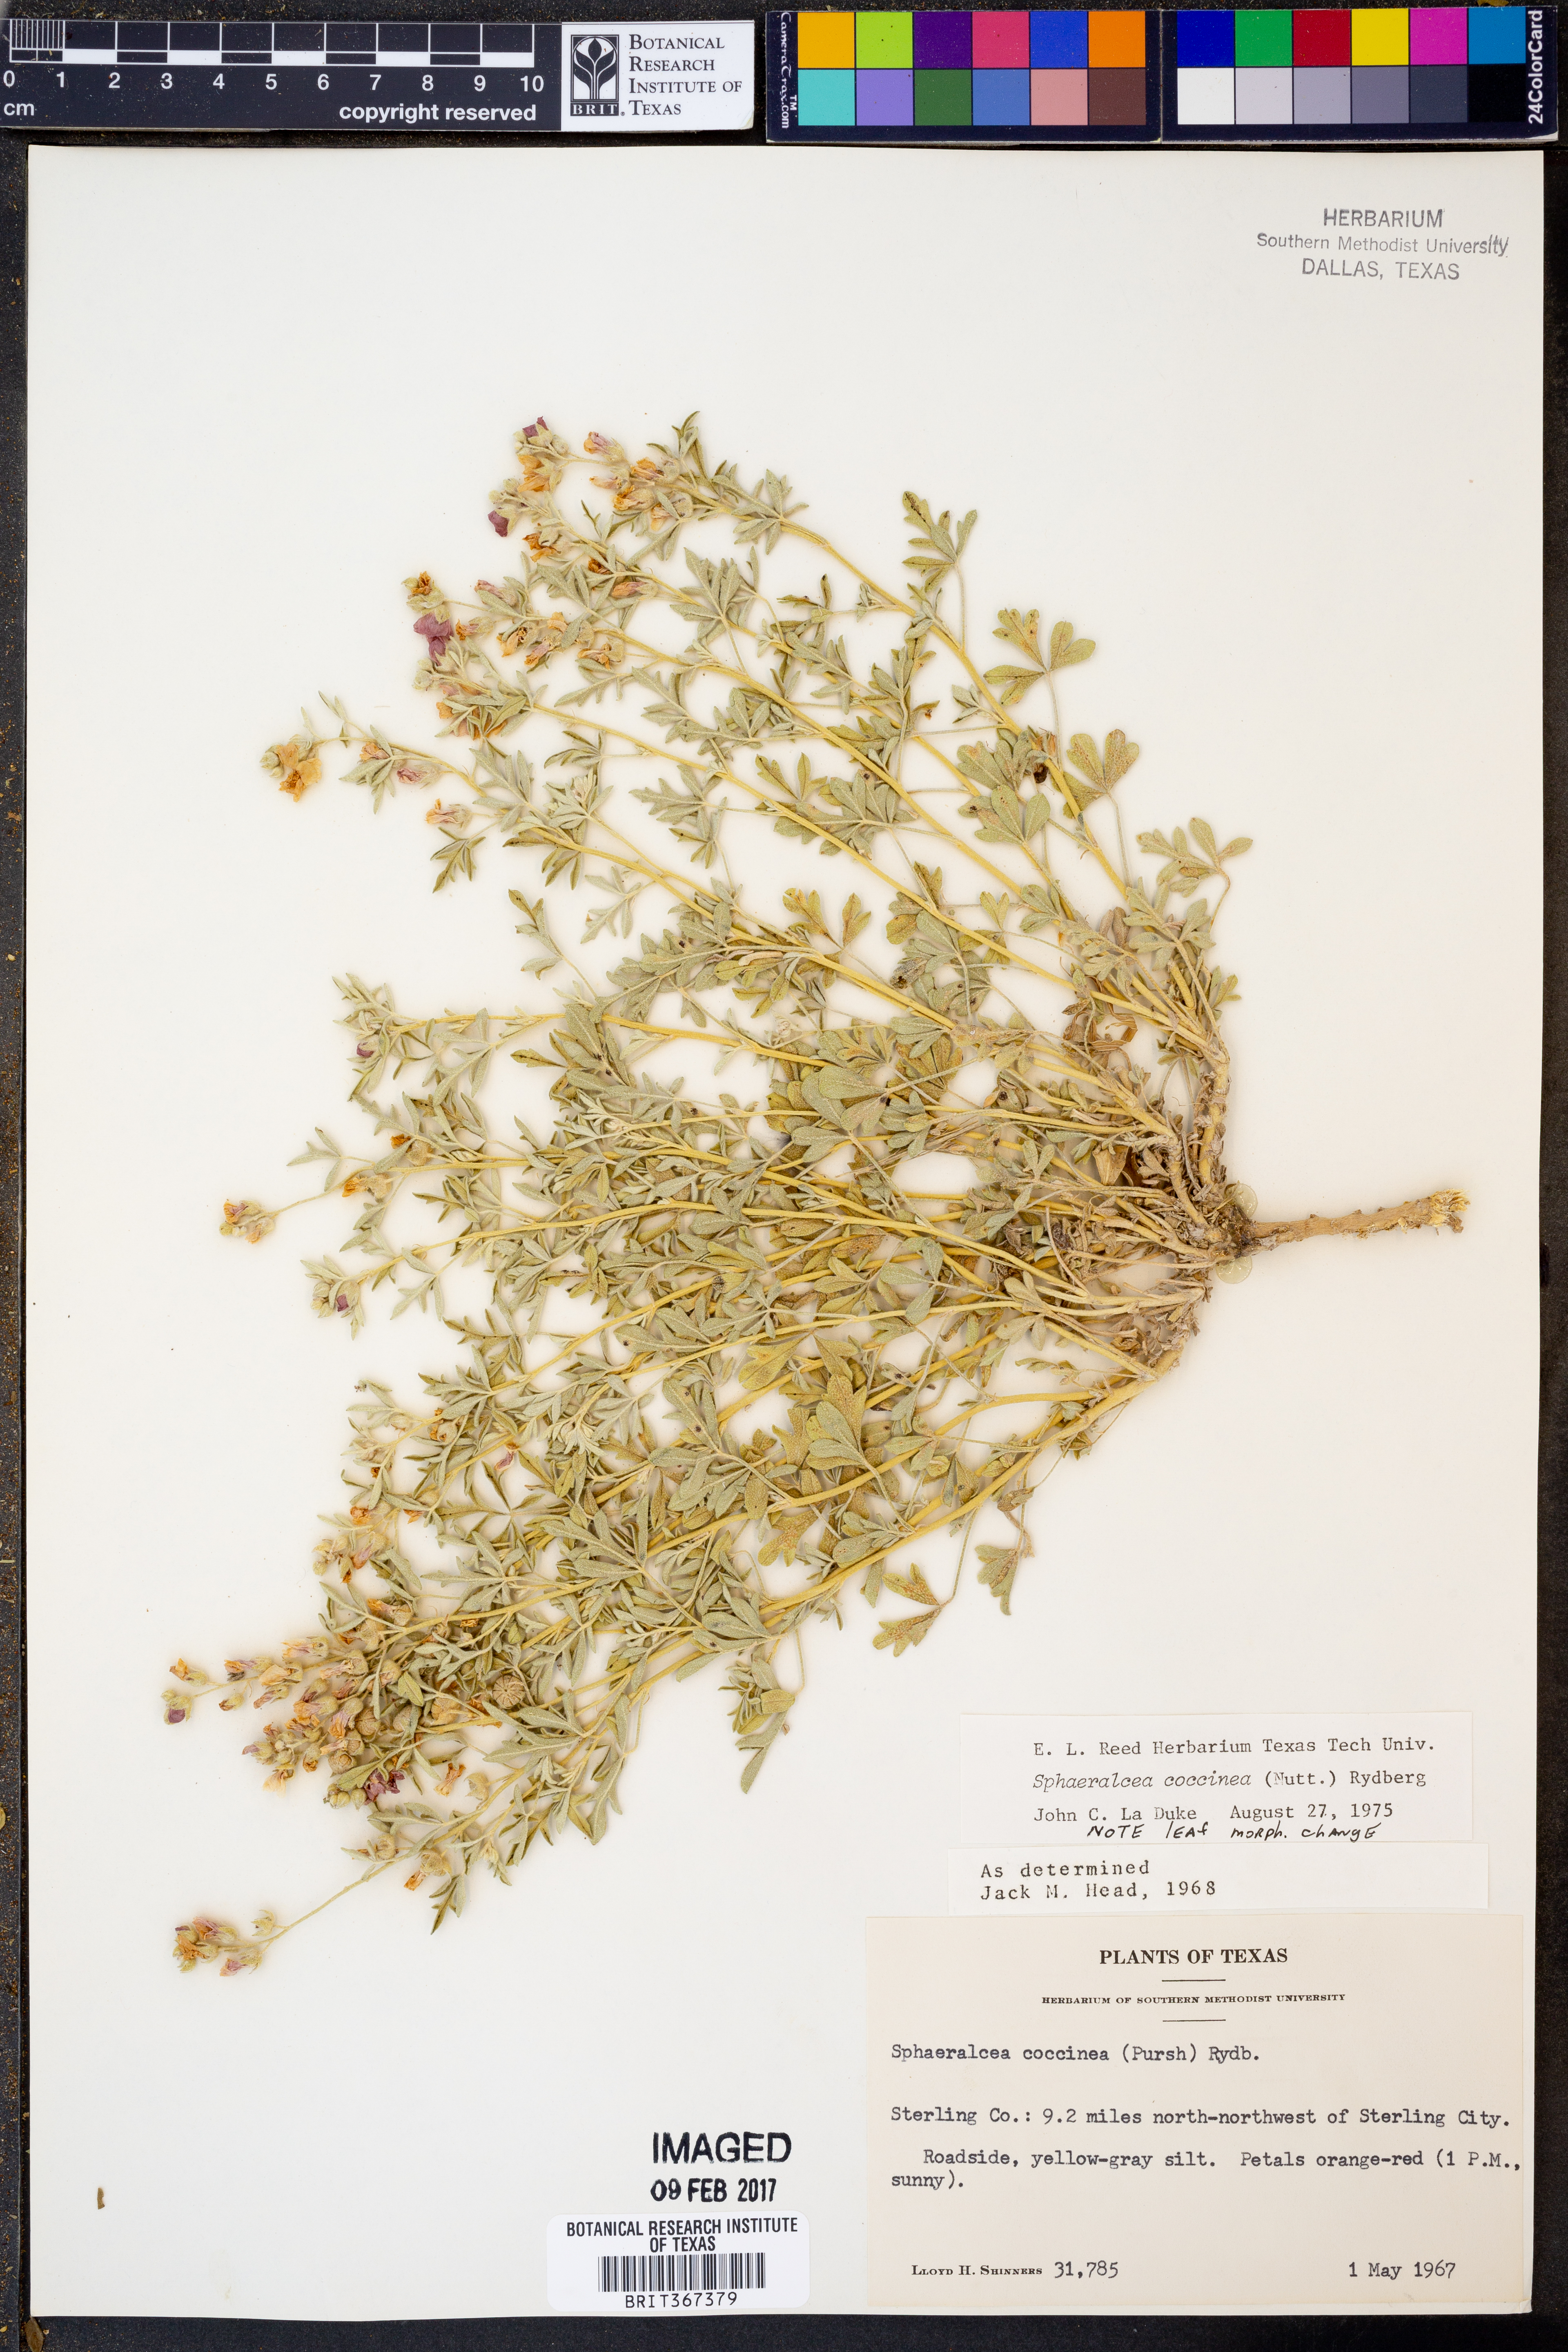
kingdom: Plantae
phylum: Tracheophyta
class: Magnoliopsida
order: Malvales
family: Malvaceae
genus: Sphaeralcea
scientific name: Sphaeralcea coccinea
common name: Moss-rose
